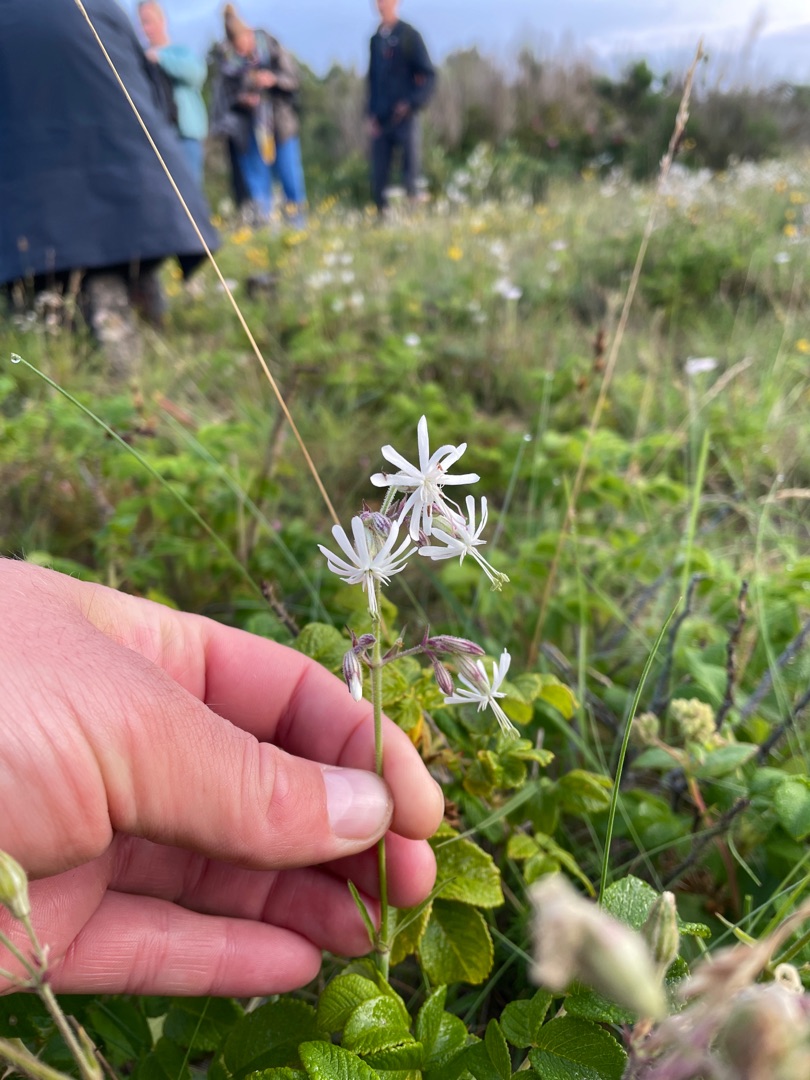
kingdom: Plantae
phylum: Tracheophyta
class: Magnoliopsida
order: Caryophyllales
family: Caryophyllaceae
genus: Silene
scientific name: Silene nutans
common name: Nikkende limurt
